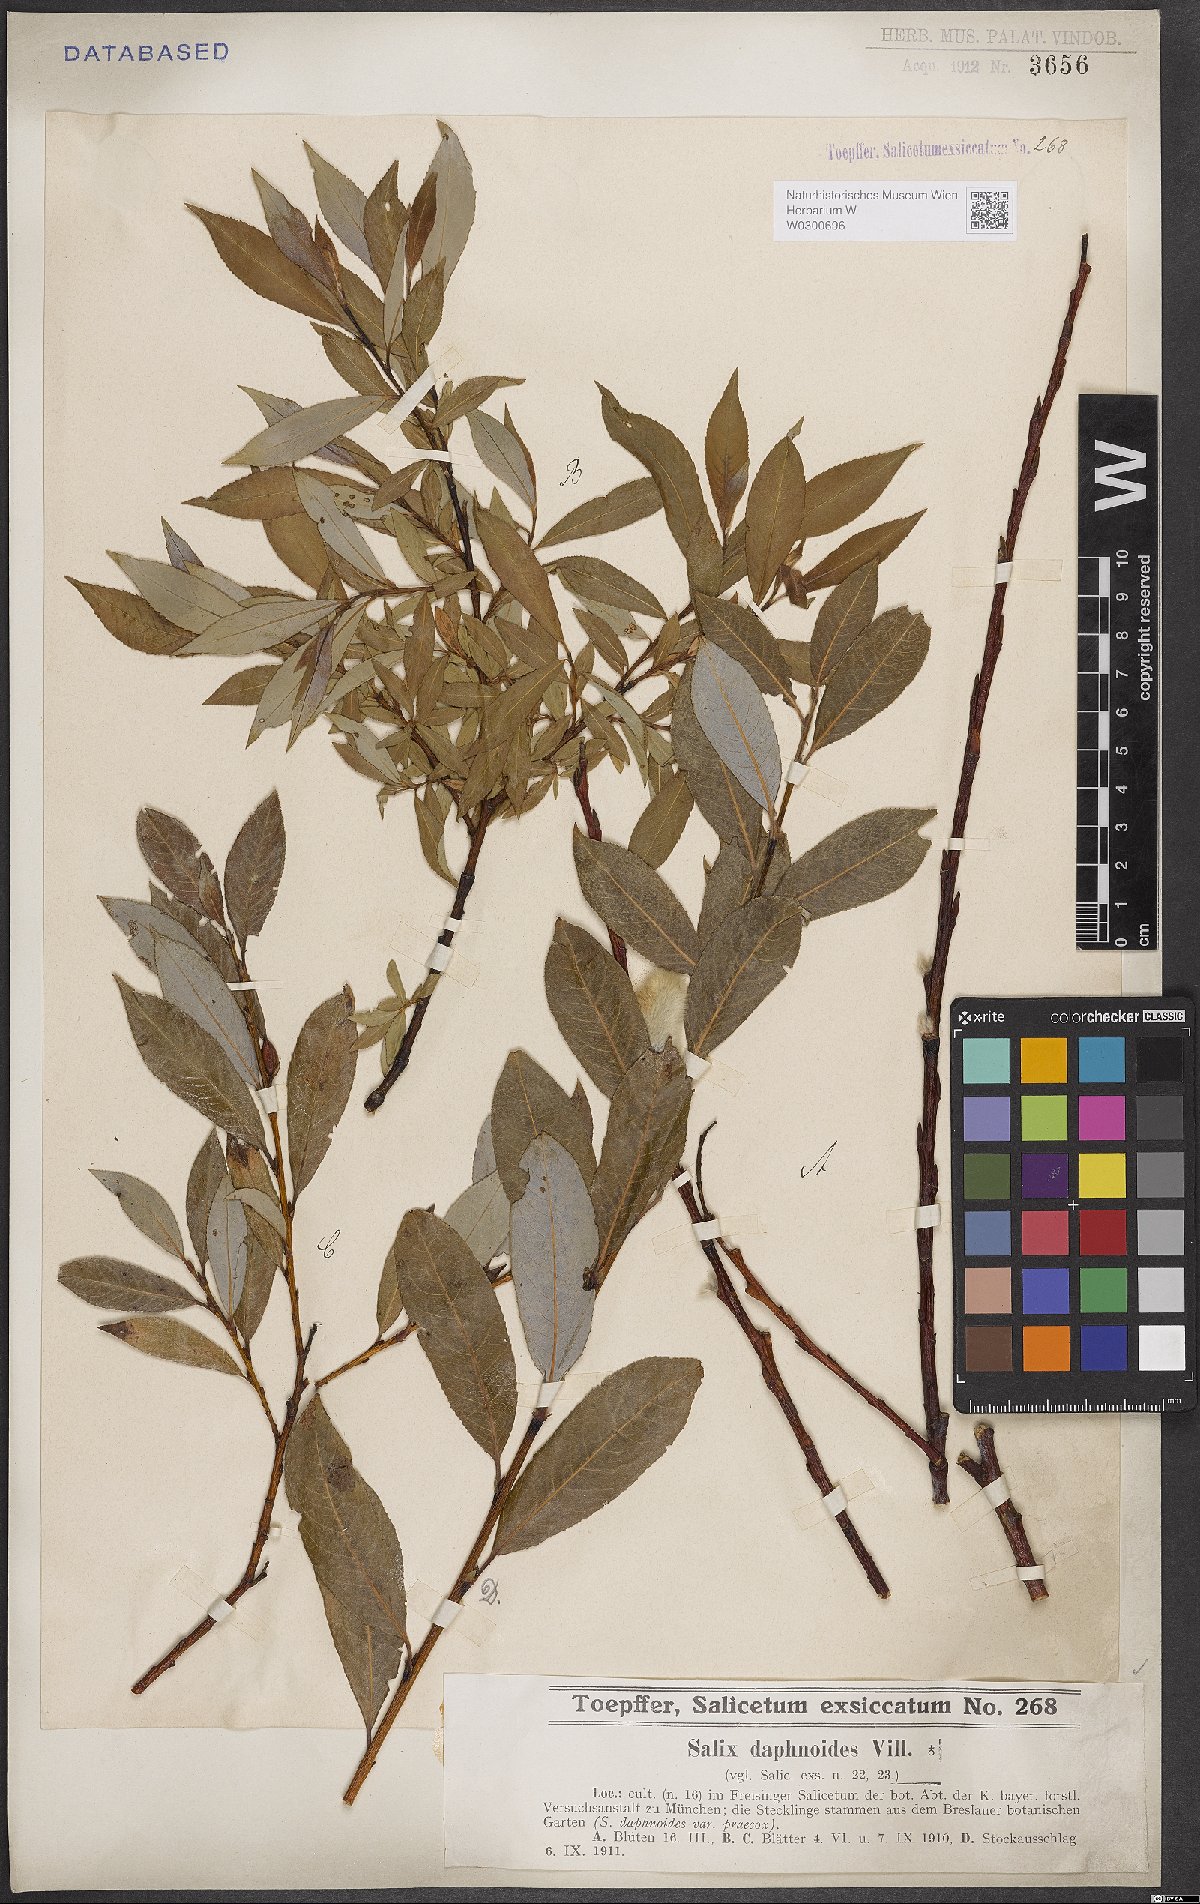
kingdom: Plantae
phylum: Tracheophyta
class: Magnoliopsida
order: Malpighiales
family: Salicaceae
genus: Salix
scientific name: Salix daphnoides
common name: European violet-willow
